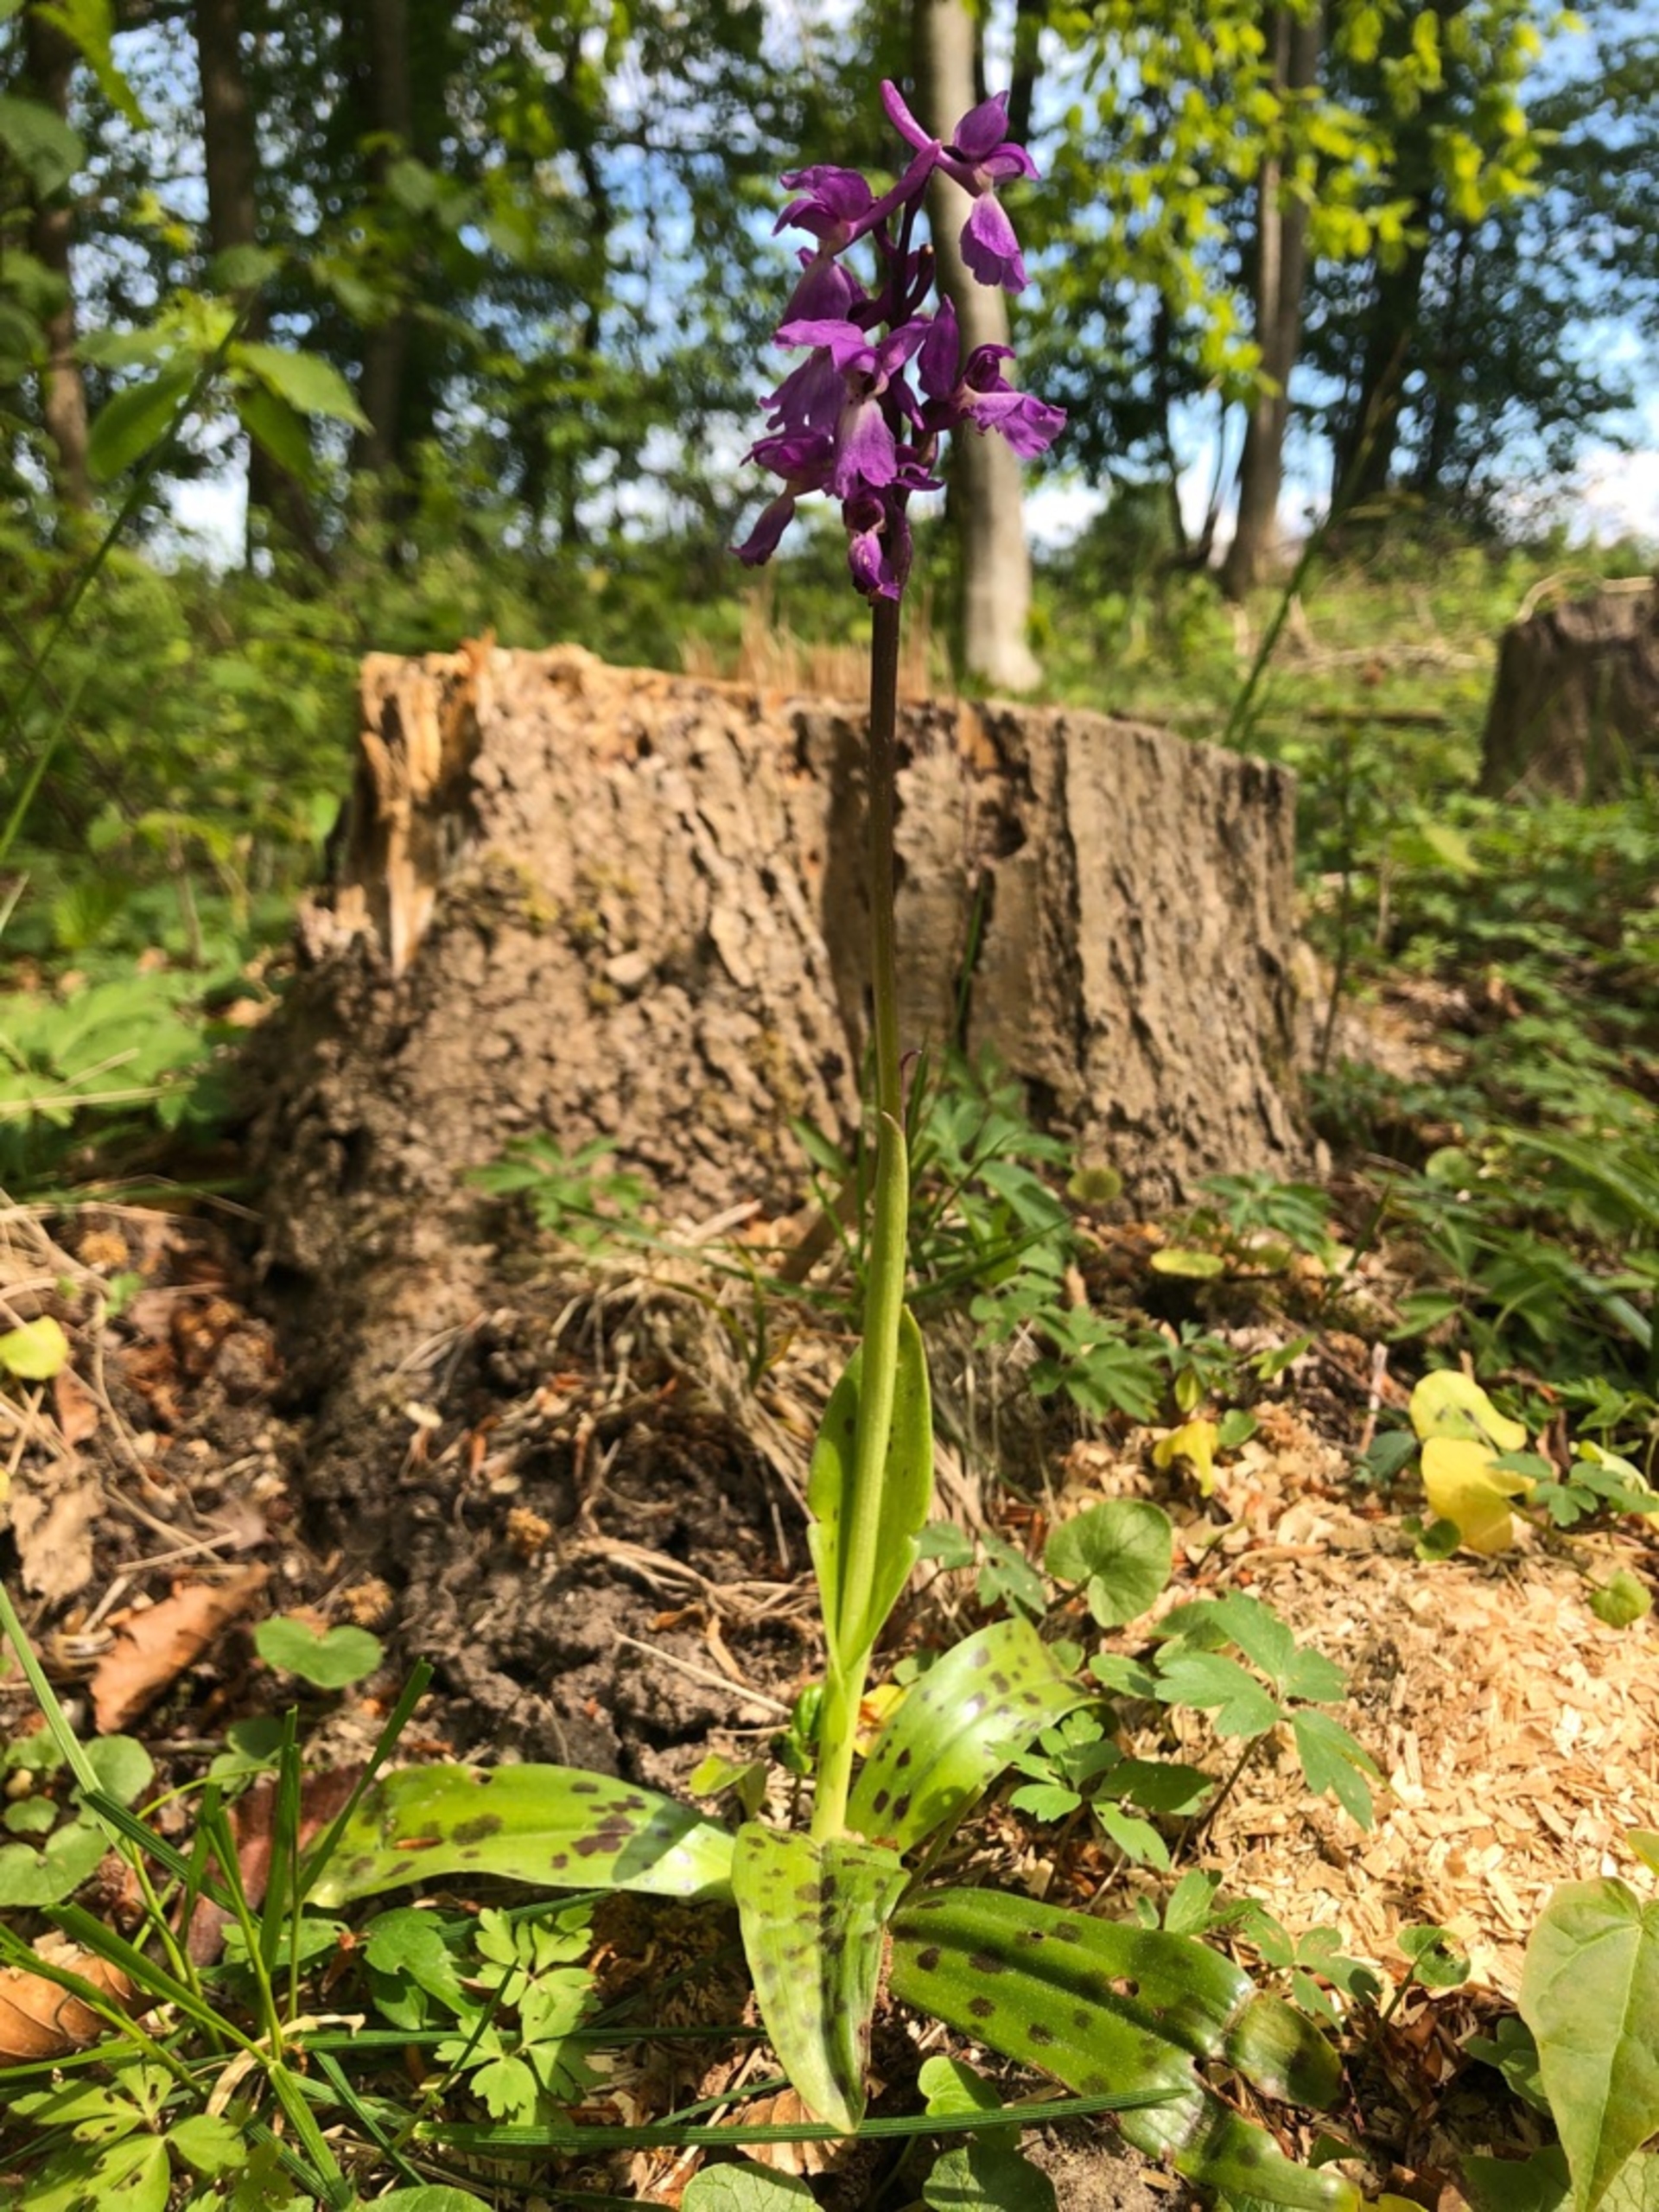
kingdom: Plantae
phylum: Tracheophyta
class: Liliopsida
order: Asparagales
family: Orchidaceae
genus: Orchis
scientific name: Orchis mascula
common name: Tyndakset gøgeurt
